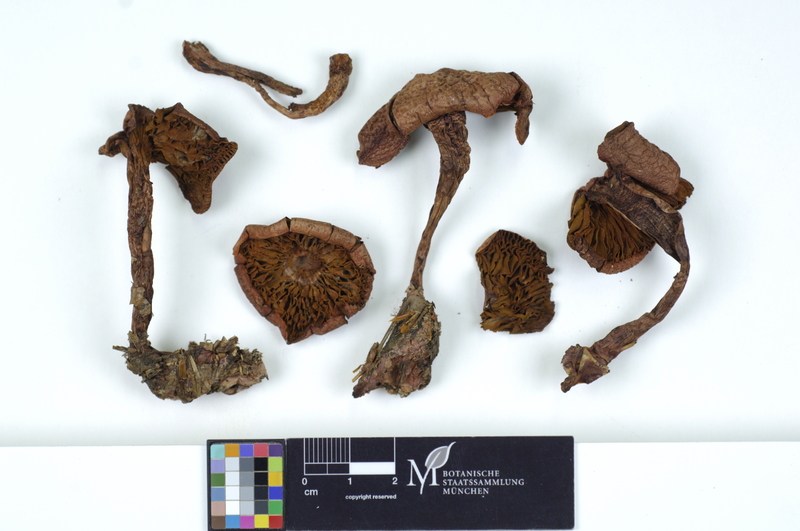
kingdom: Fungi
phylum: Basidiomycota
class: Agaricomycetes
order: Agaricales
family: Cortinariaceae
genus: Cortinarius
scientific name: Cortinarius bolaris
